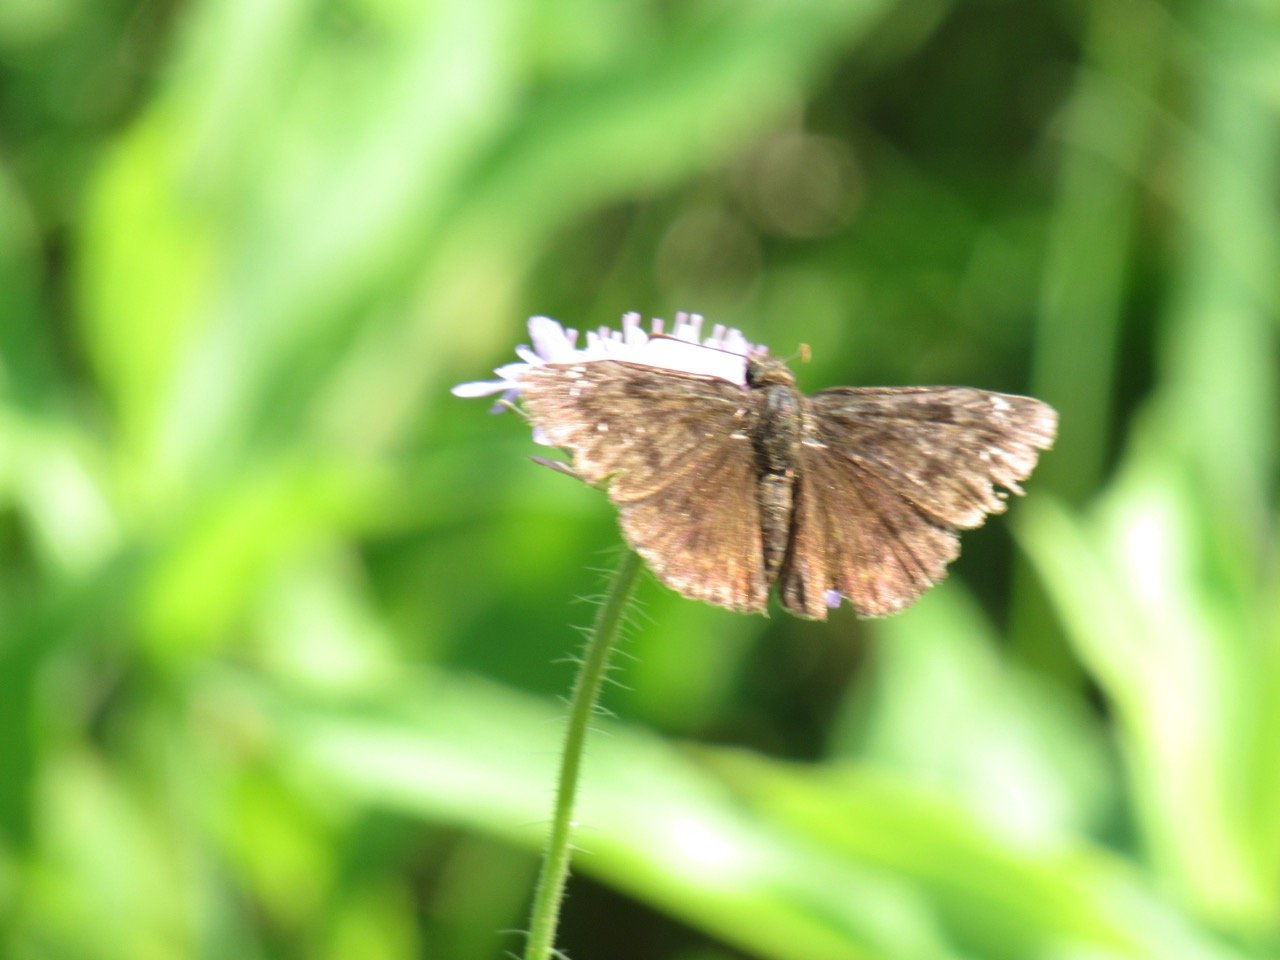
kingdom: Animalia
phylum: Arthropoda
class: Insecta
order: Lepidoptera
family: Hesperiidae
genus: Gesta
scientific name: Gesta
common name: Wild Indigo Duskywing
